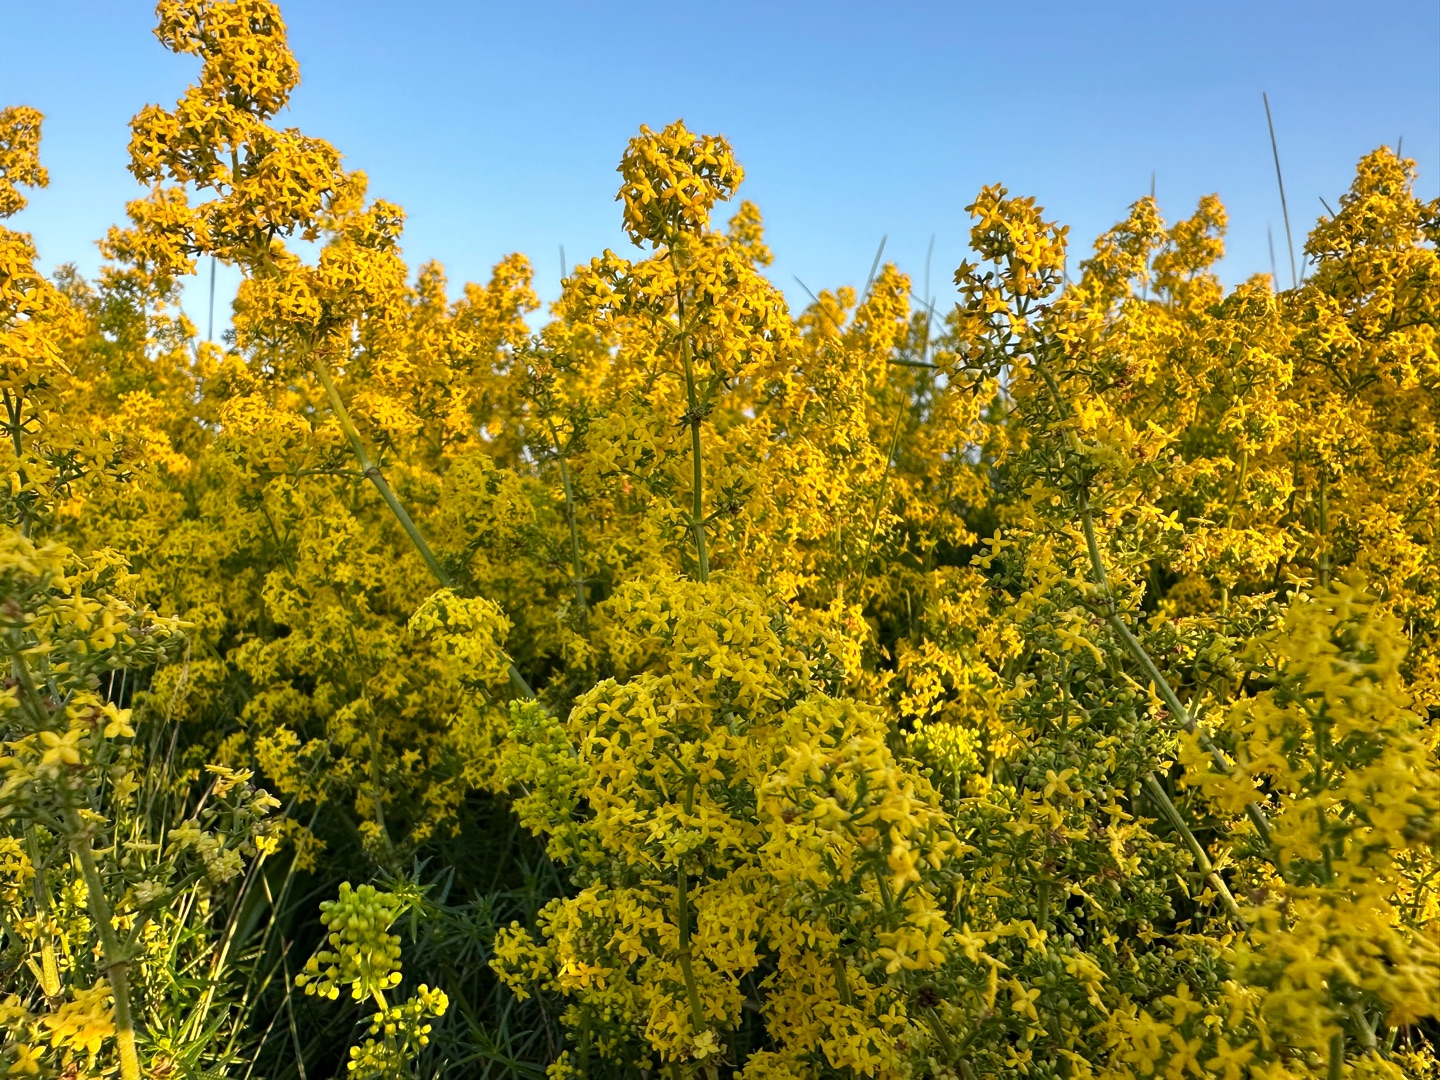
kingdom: Plantae
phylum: Tracheophyta
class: Magnoliopsida
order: Gentianales
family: Rubiaceae
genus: Galium
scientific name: Galium verum
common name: Gul snerre
